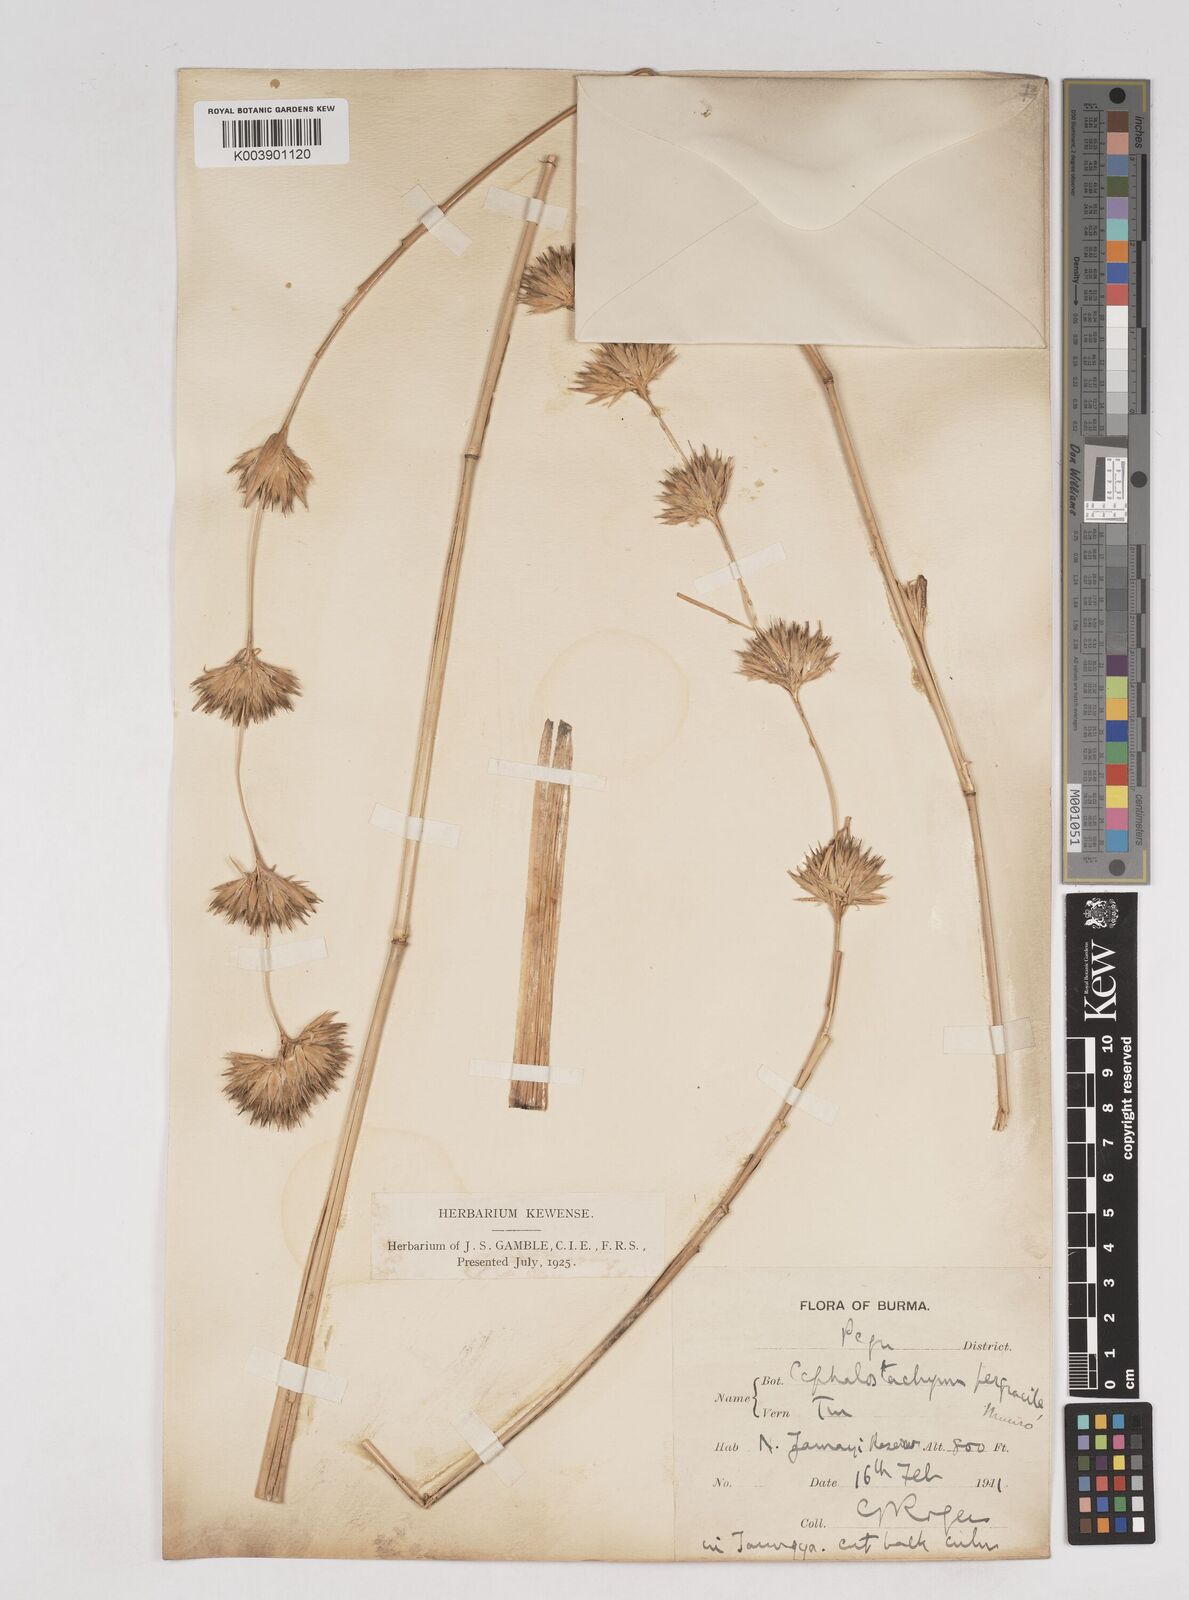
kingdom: Plantae
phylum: Tracheophyta
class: Liliopsida
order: Poales
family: Poaceae
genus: Schizostachyum
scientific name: Schizostachyum pergracile
